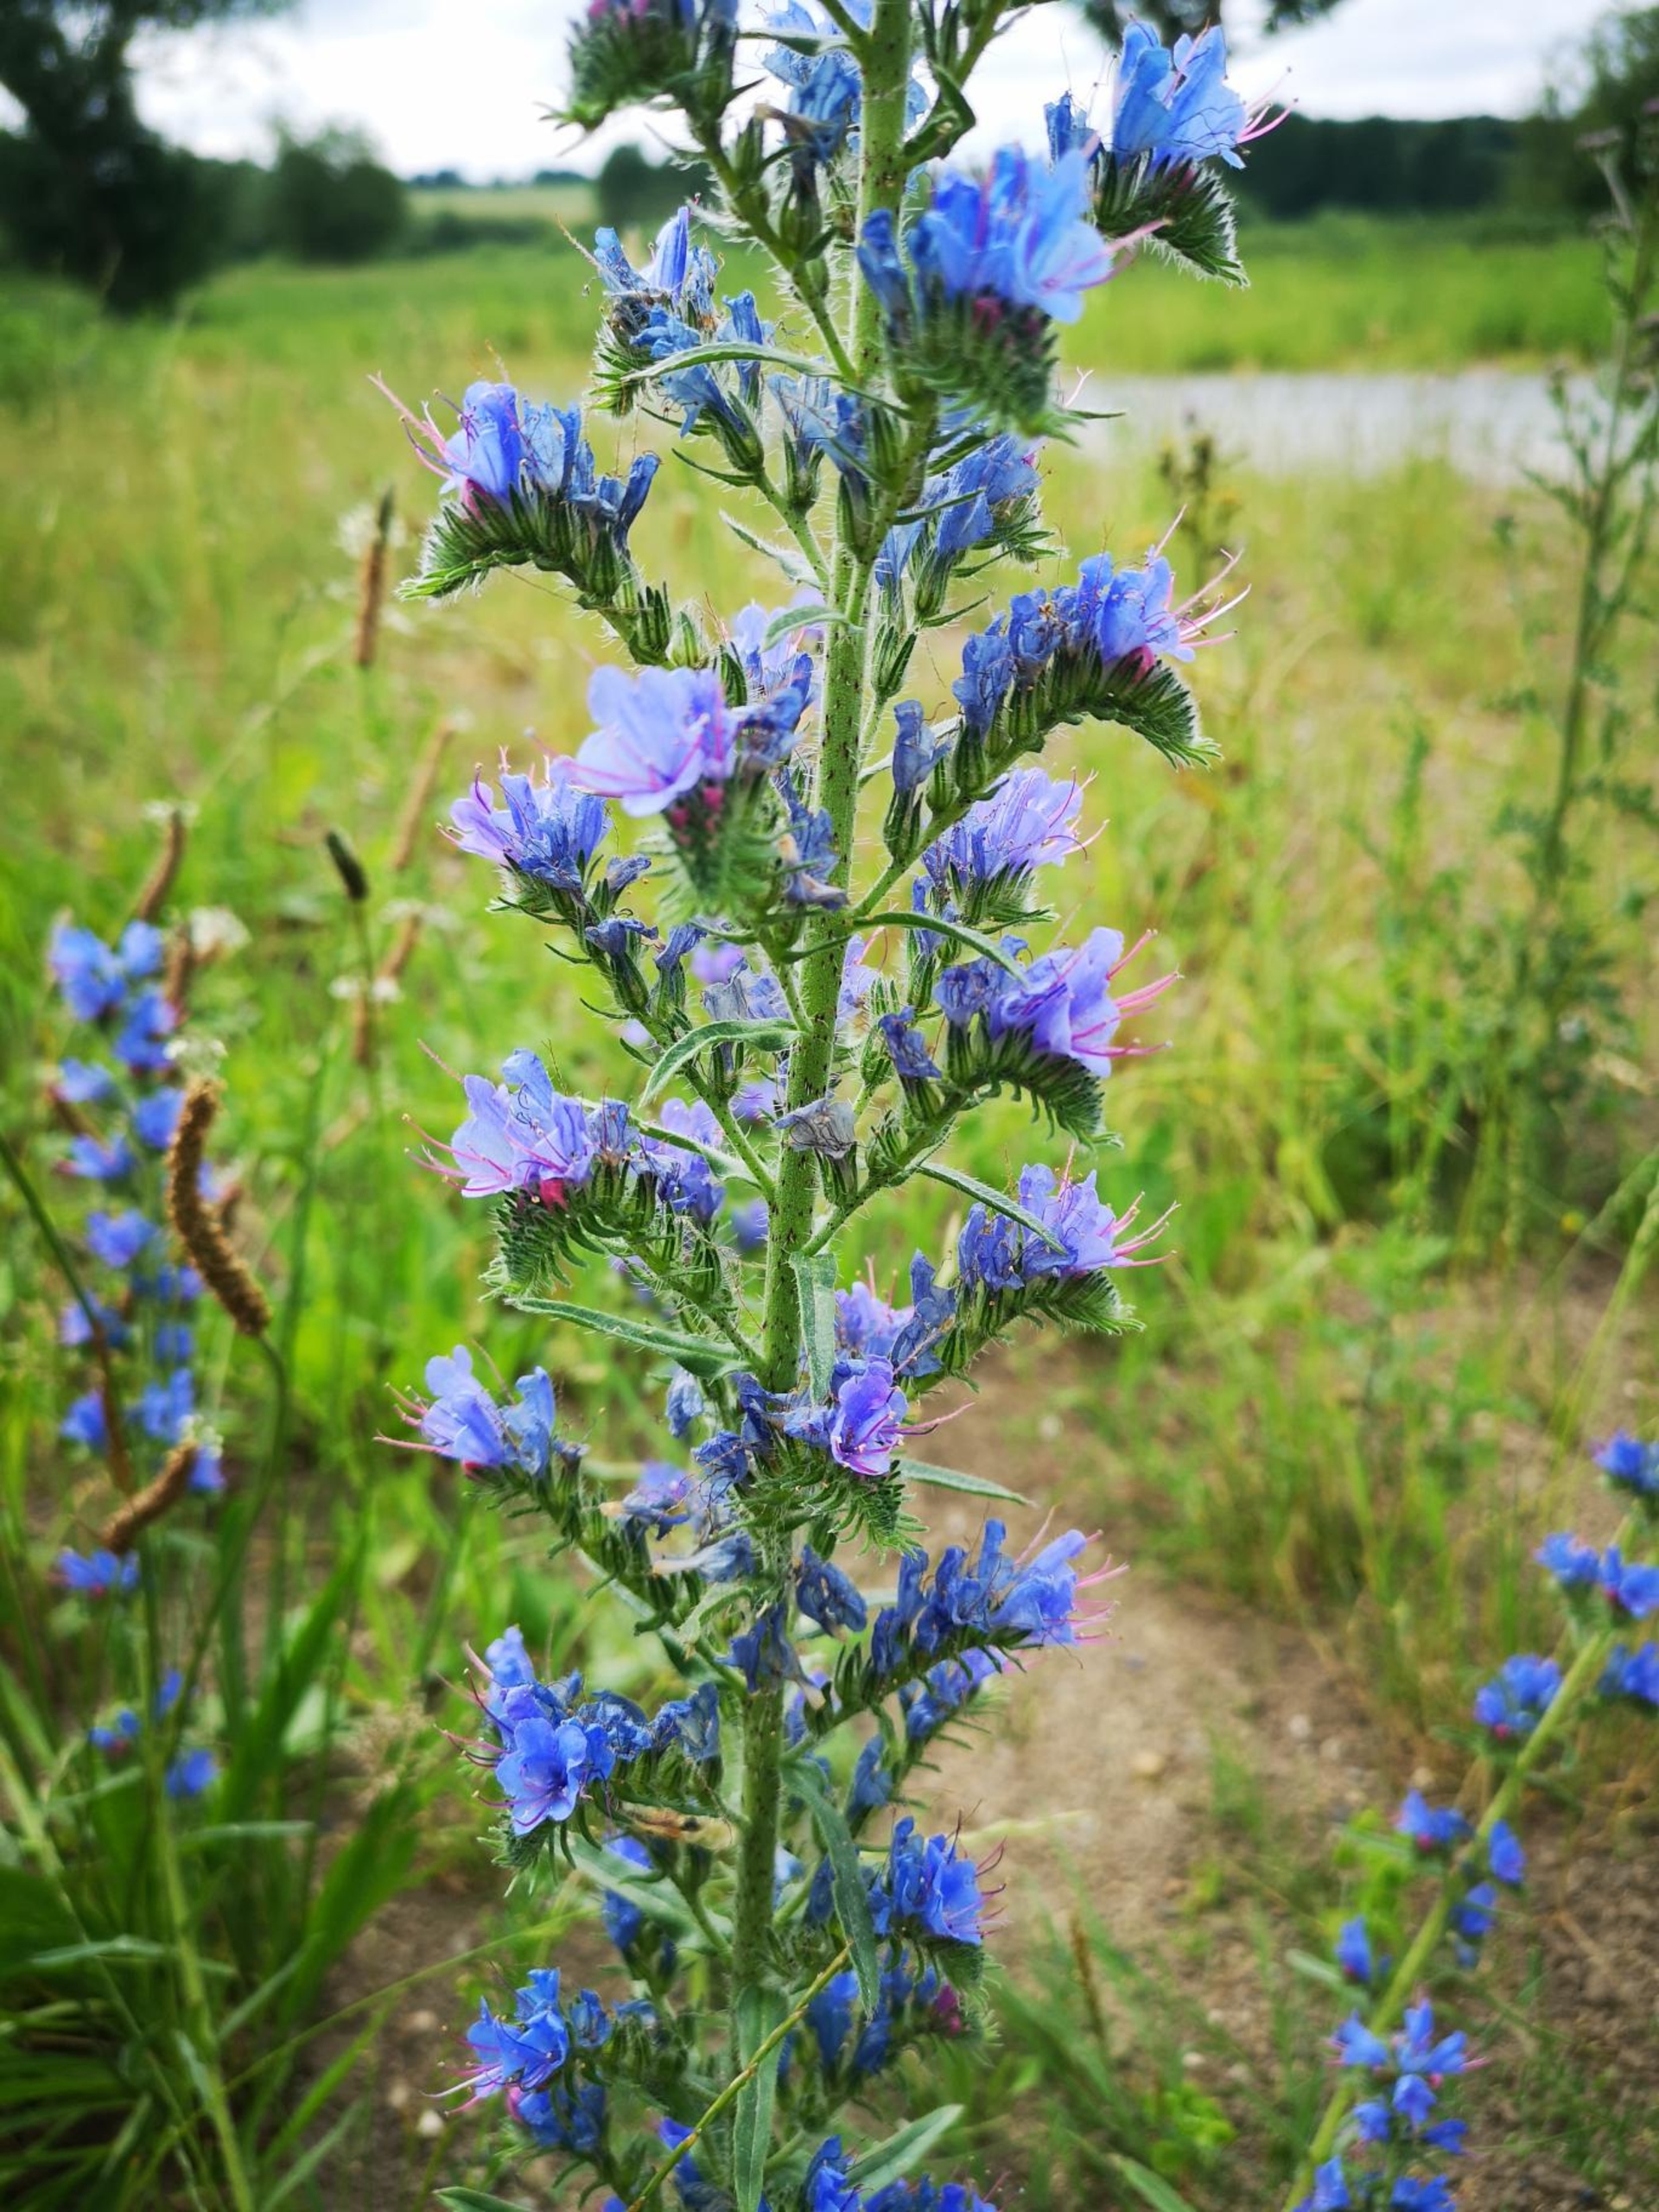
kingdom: Plantae
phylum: Tracheophyta
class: Magnoliopsida
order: Boraginales
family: Boraginaceae
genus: Echium
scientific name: Echium vulgare
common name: Slangehoved
